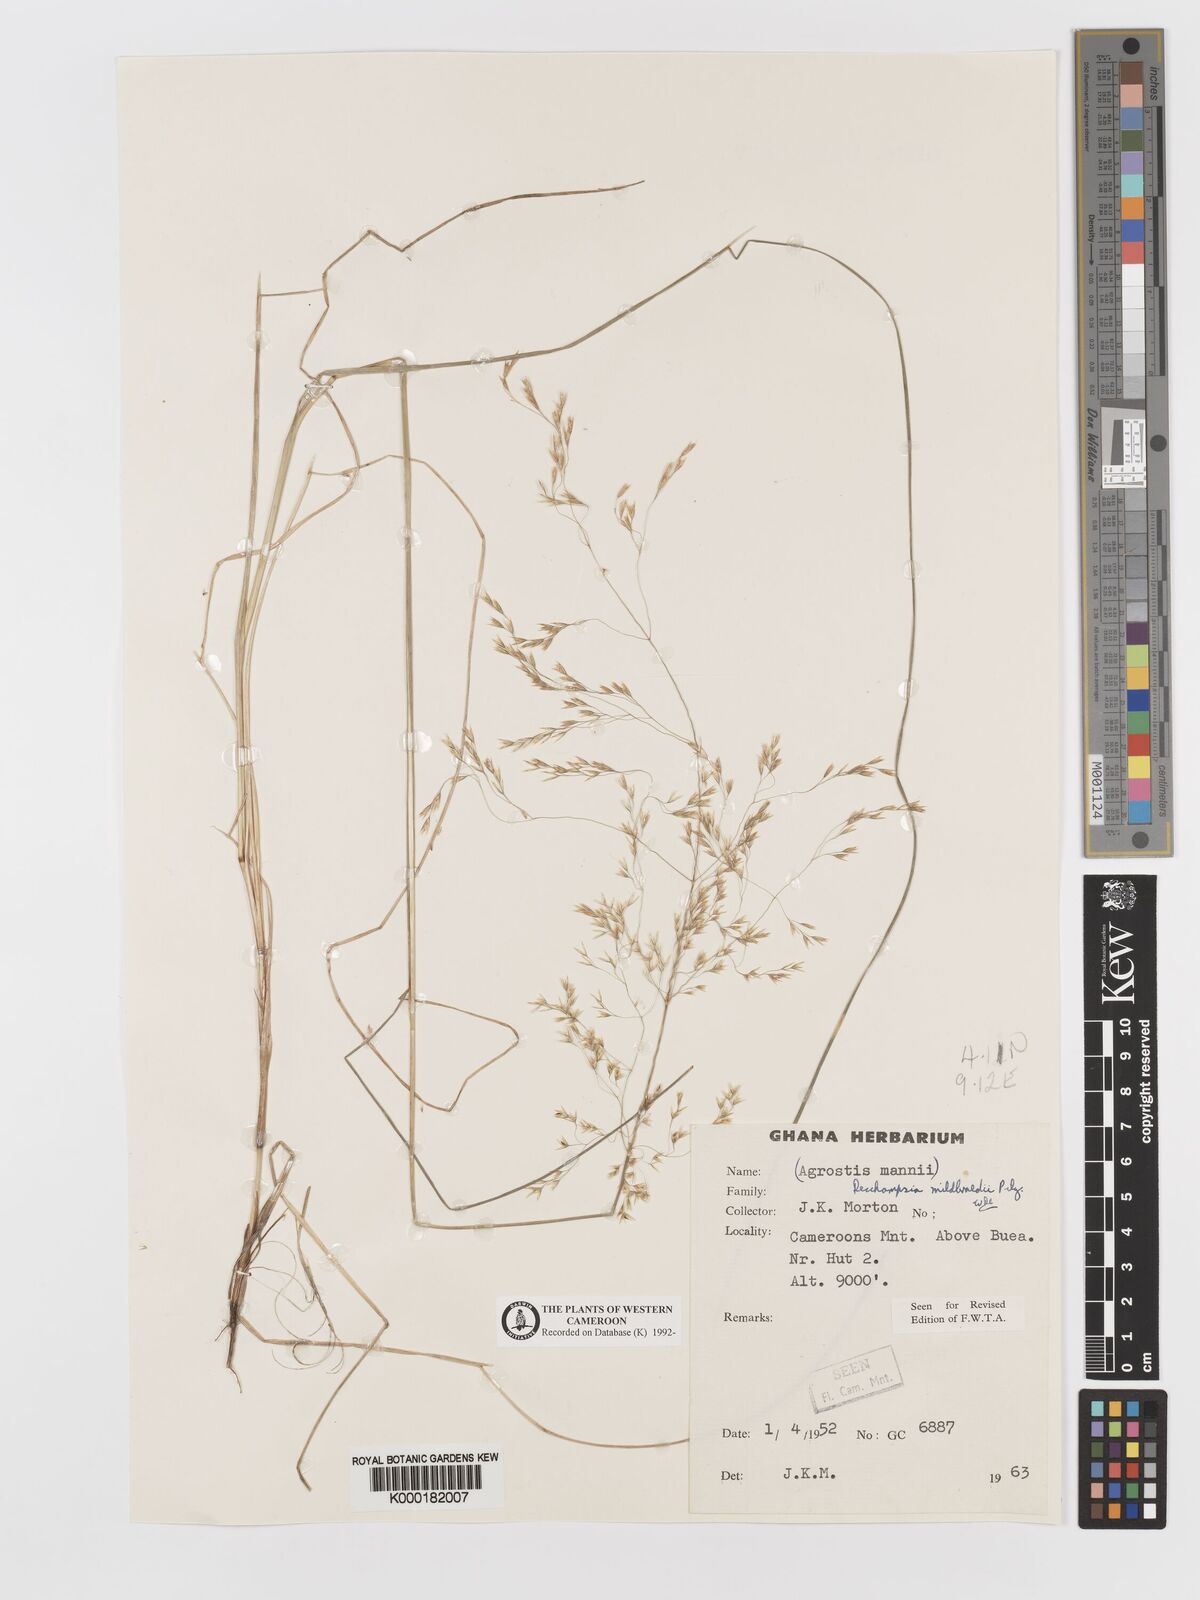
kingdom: Plantae
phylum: Tracheophyta
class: Liliopsida
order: Poales
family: Poaceae
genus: Deschampsia
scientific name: Deschampsia mildbraedii
